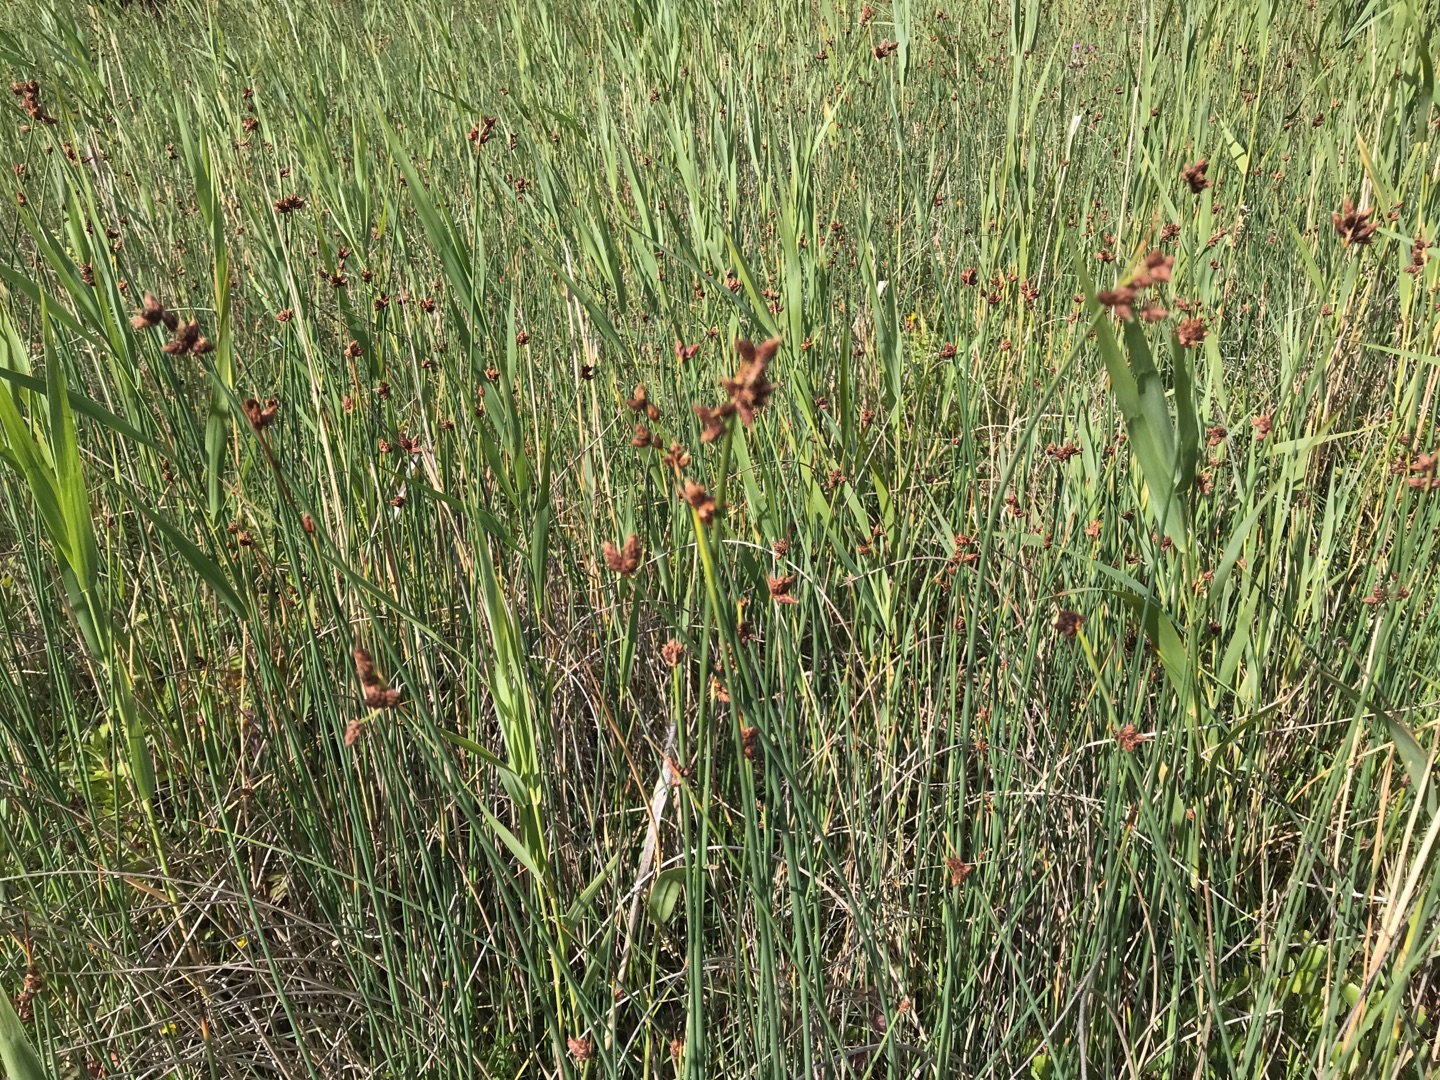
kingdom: Plantae
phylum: Tracheophyta
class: Liliopsida
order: Poales
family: Cyperaceae
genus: Schoenoplectus
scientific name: Schoenoplectus tabernaemontani
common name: Blågrøn kogleaks
